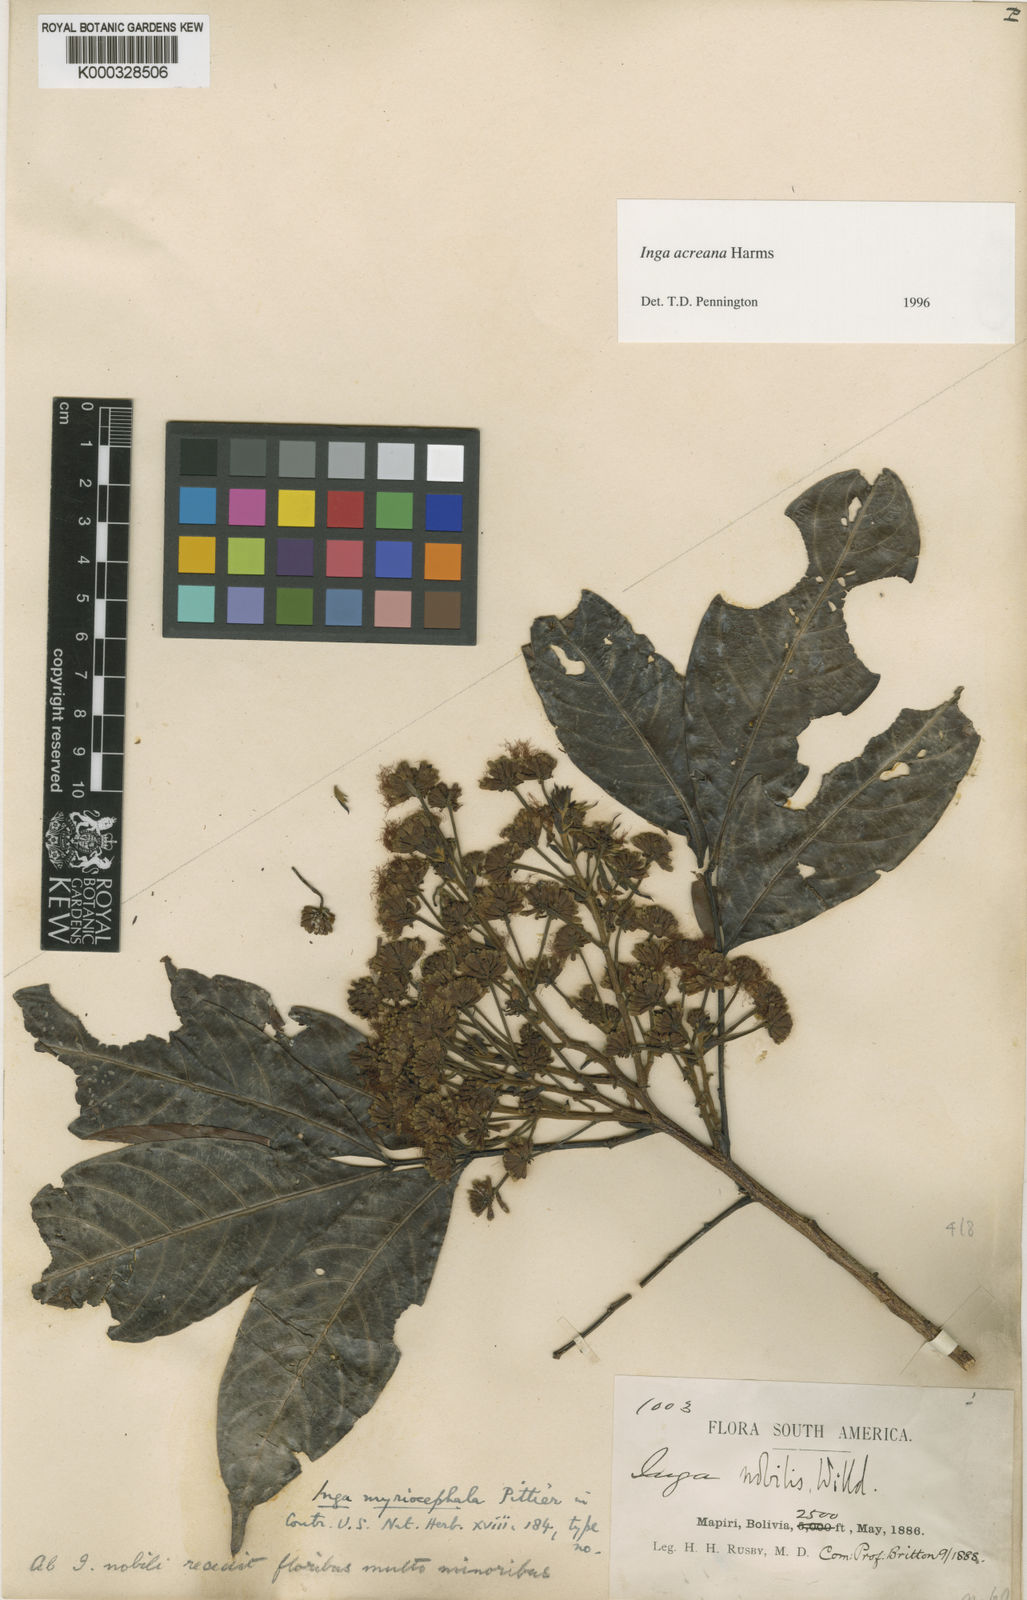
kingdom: Plantae
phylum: Tracheophyta
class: Magnoliopsida
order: Fabales
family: Fabaceae
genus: Inga
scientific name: Inga acreana
